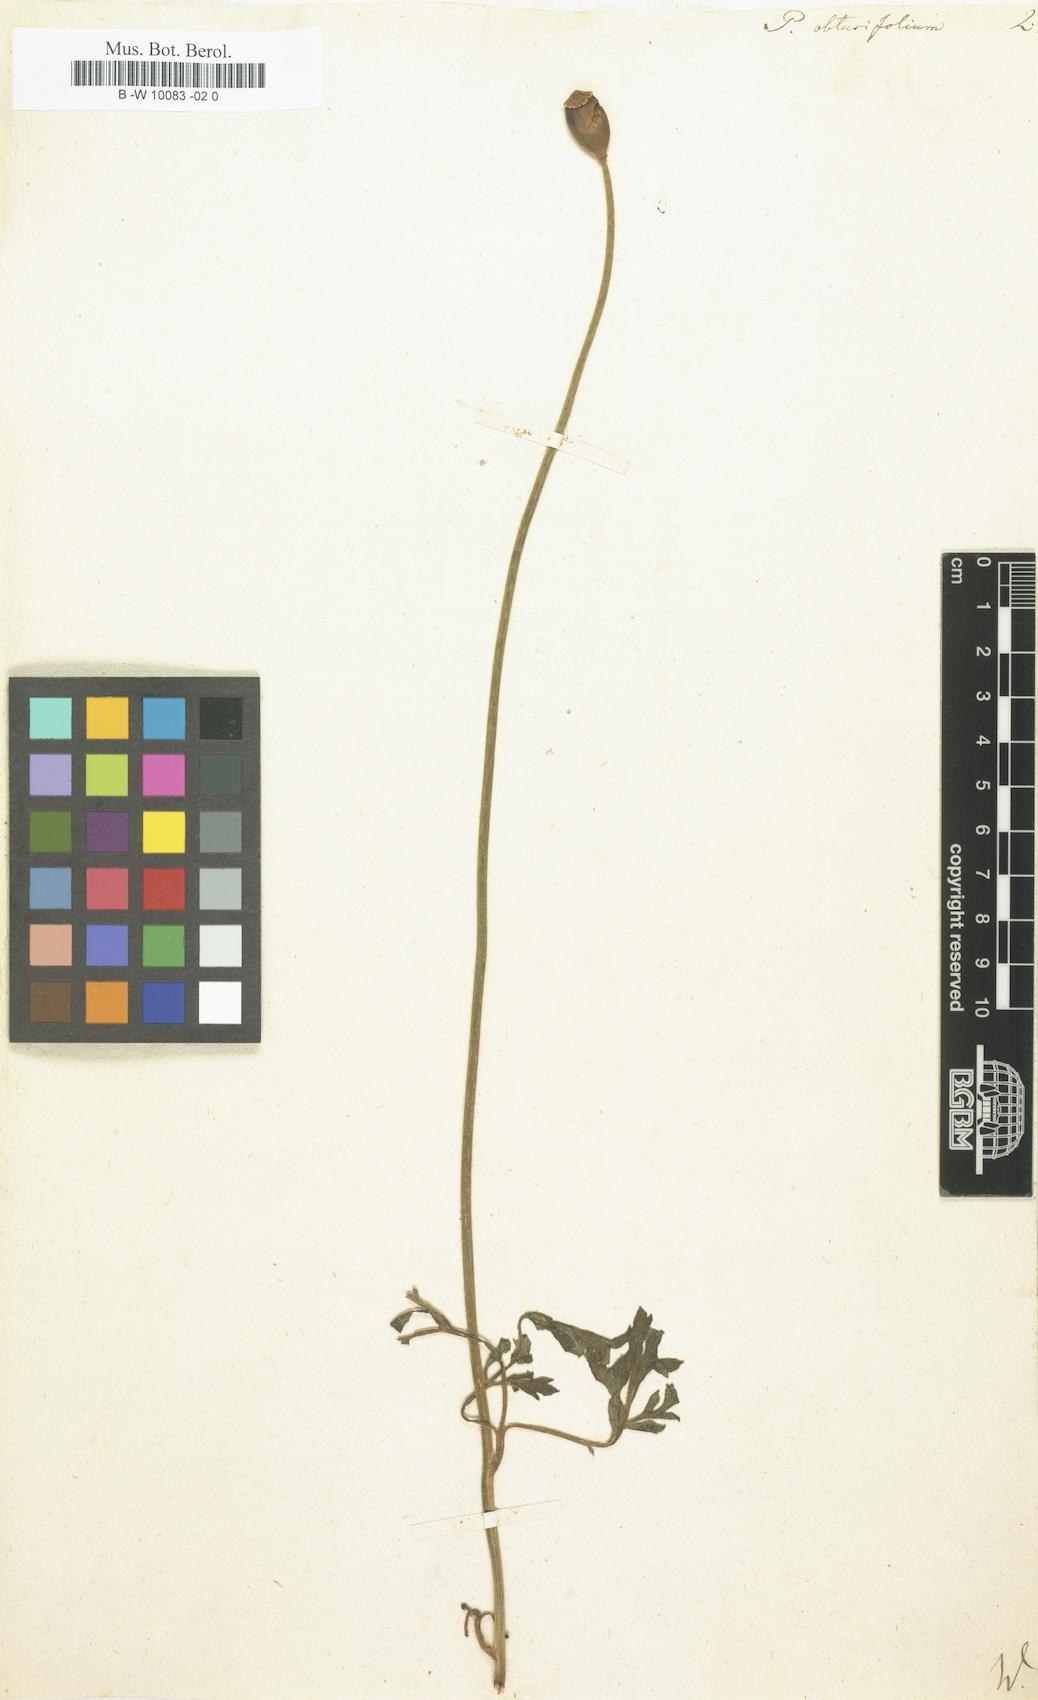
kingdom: Plantae
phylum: Tracheophyta
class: Magnoliopsida
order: Ranunculales
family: Papaveraceae
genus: Papaver
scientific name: Papaver dubium
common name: Long-headed poppy
